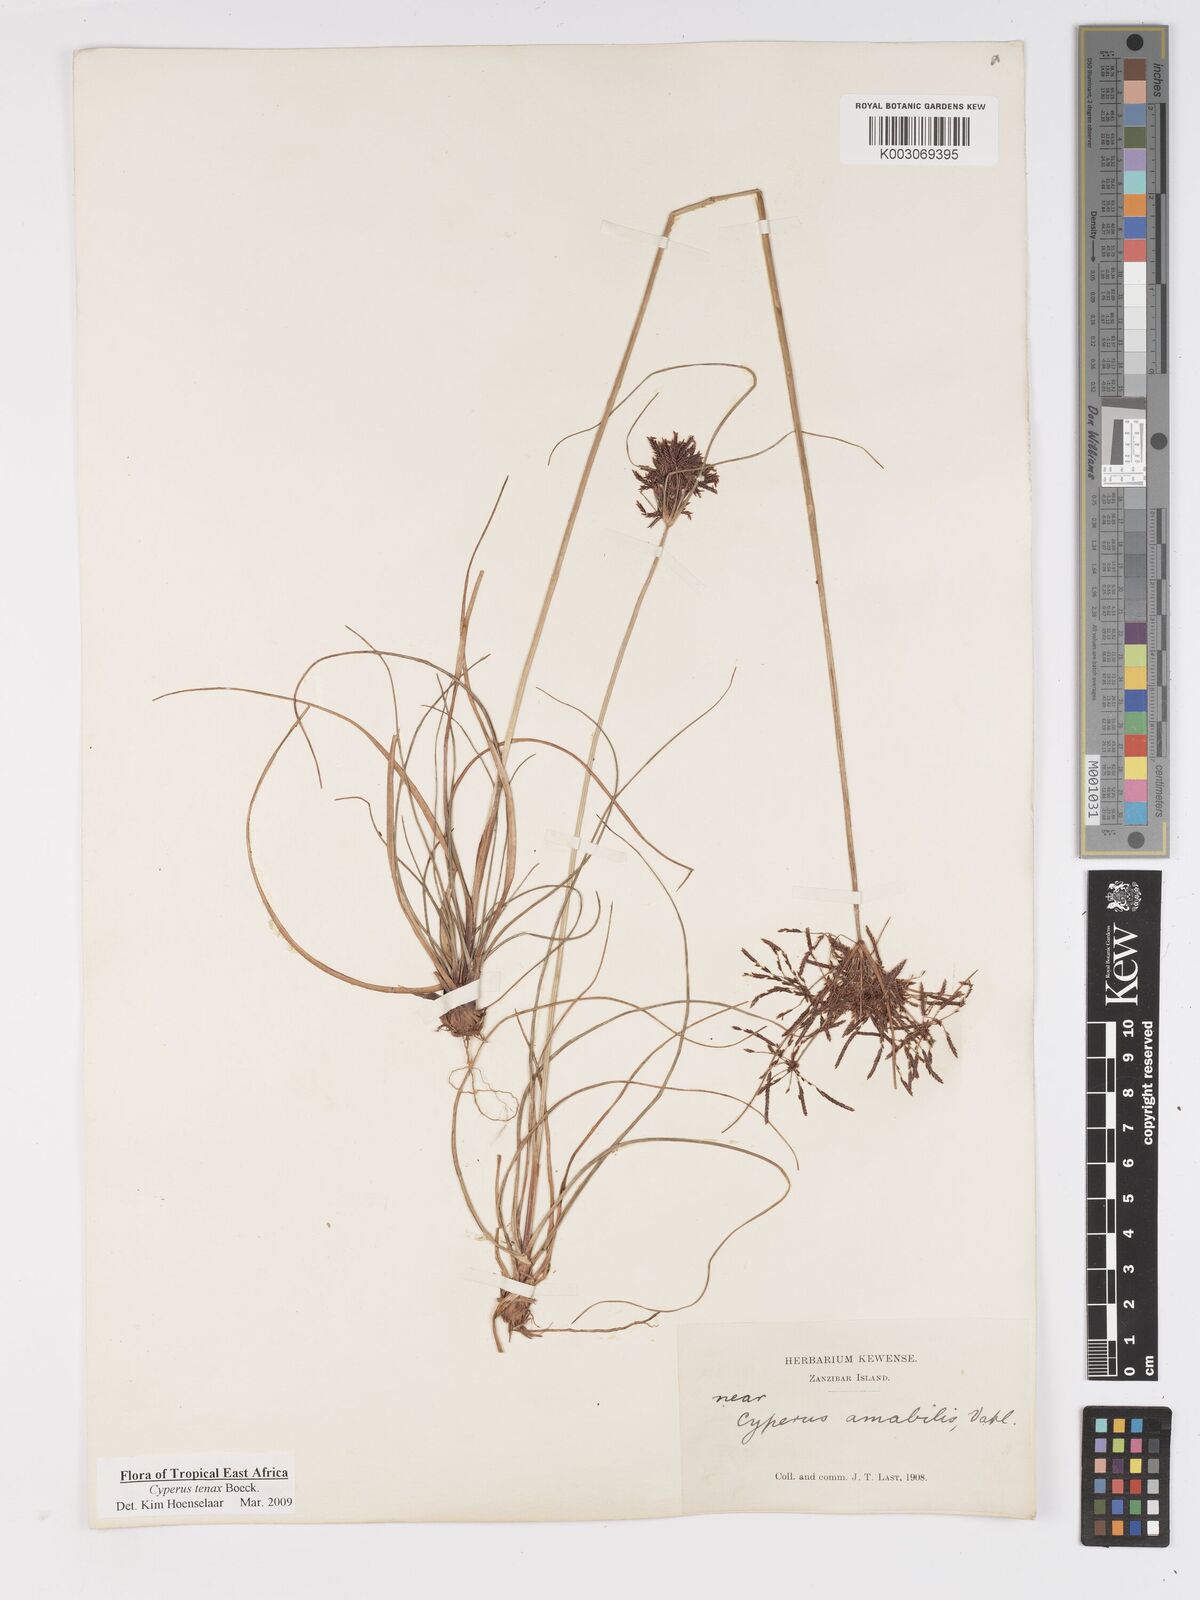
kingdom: Plantae
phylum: Tracheophyta
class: Liliopsida
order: Poales
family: Cyperaceae
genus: Cyperus
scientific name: Cyperus tenax
